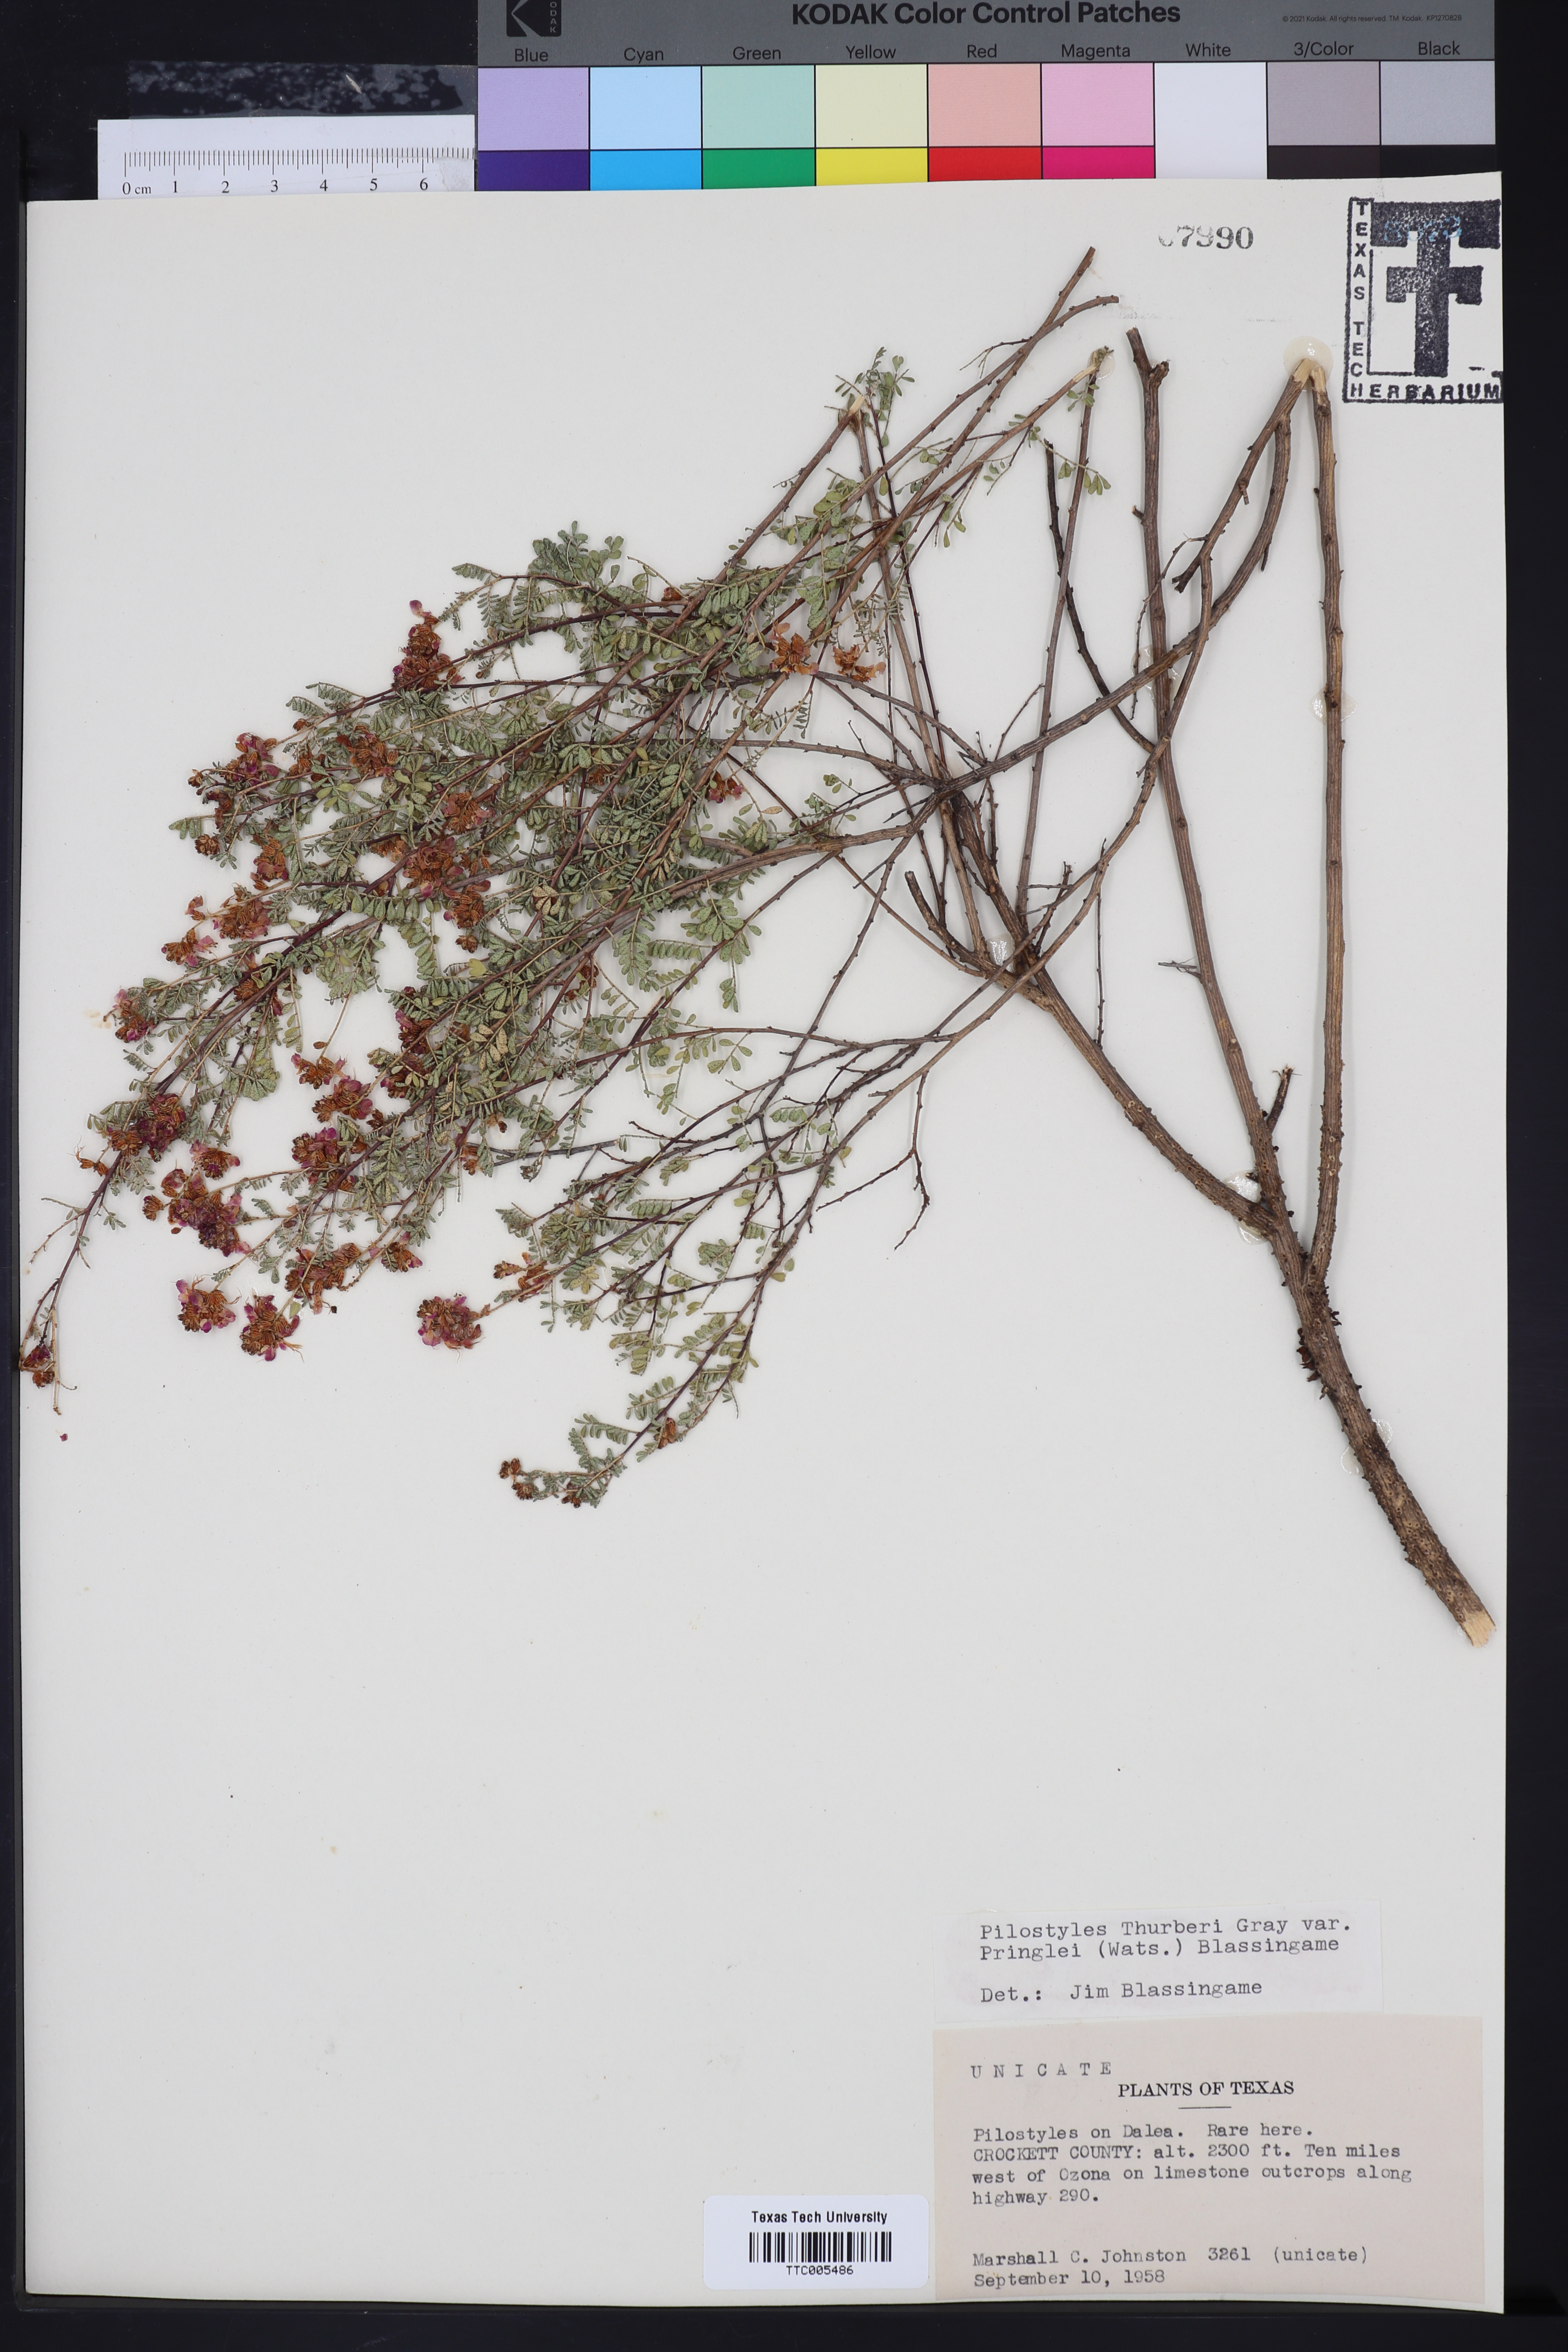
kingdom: Plantae
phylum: Tracheophyta
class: Magnoliopsida
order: Cucurbitales
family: Apodanthaceae
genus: Pilostyles
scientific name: Pilostyles
